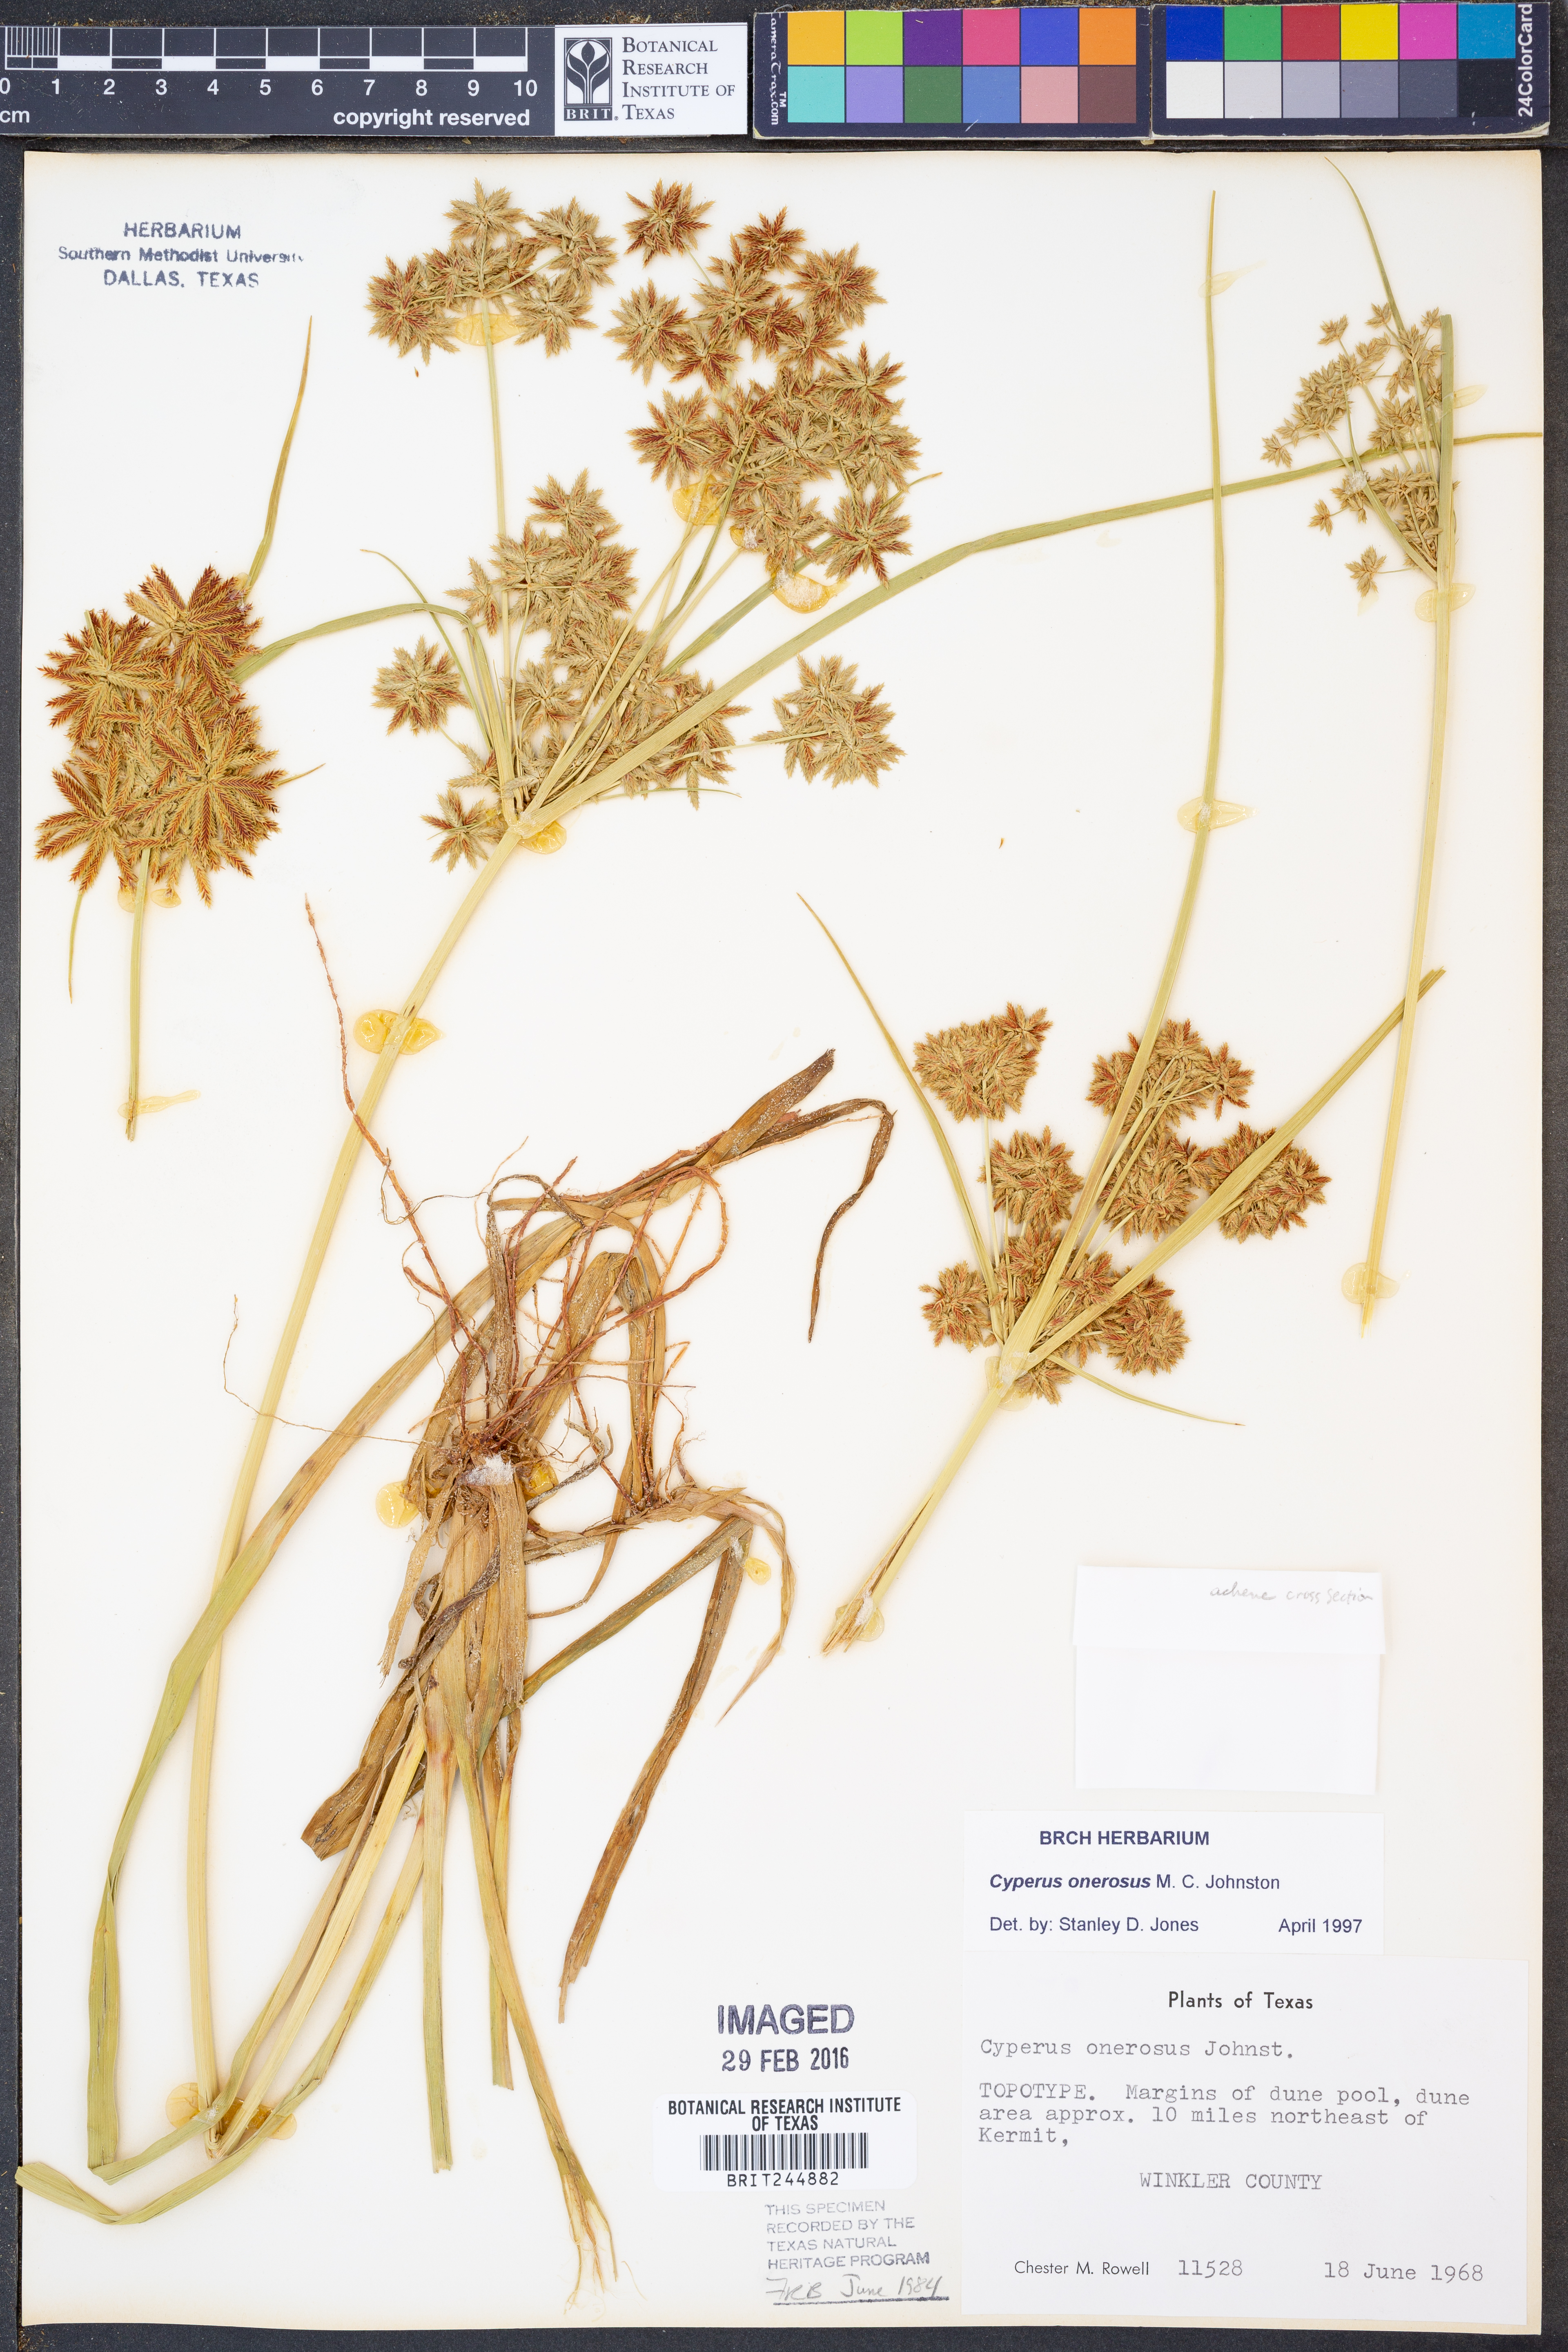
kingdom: Plantae
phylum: Tracheophyta
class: Liliopsida
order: Poales
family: Cyperaceae
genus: Cyperus
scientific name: Cyperus onerosus
